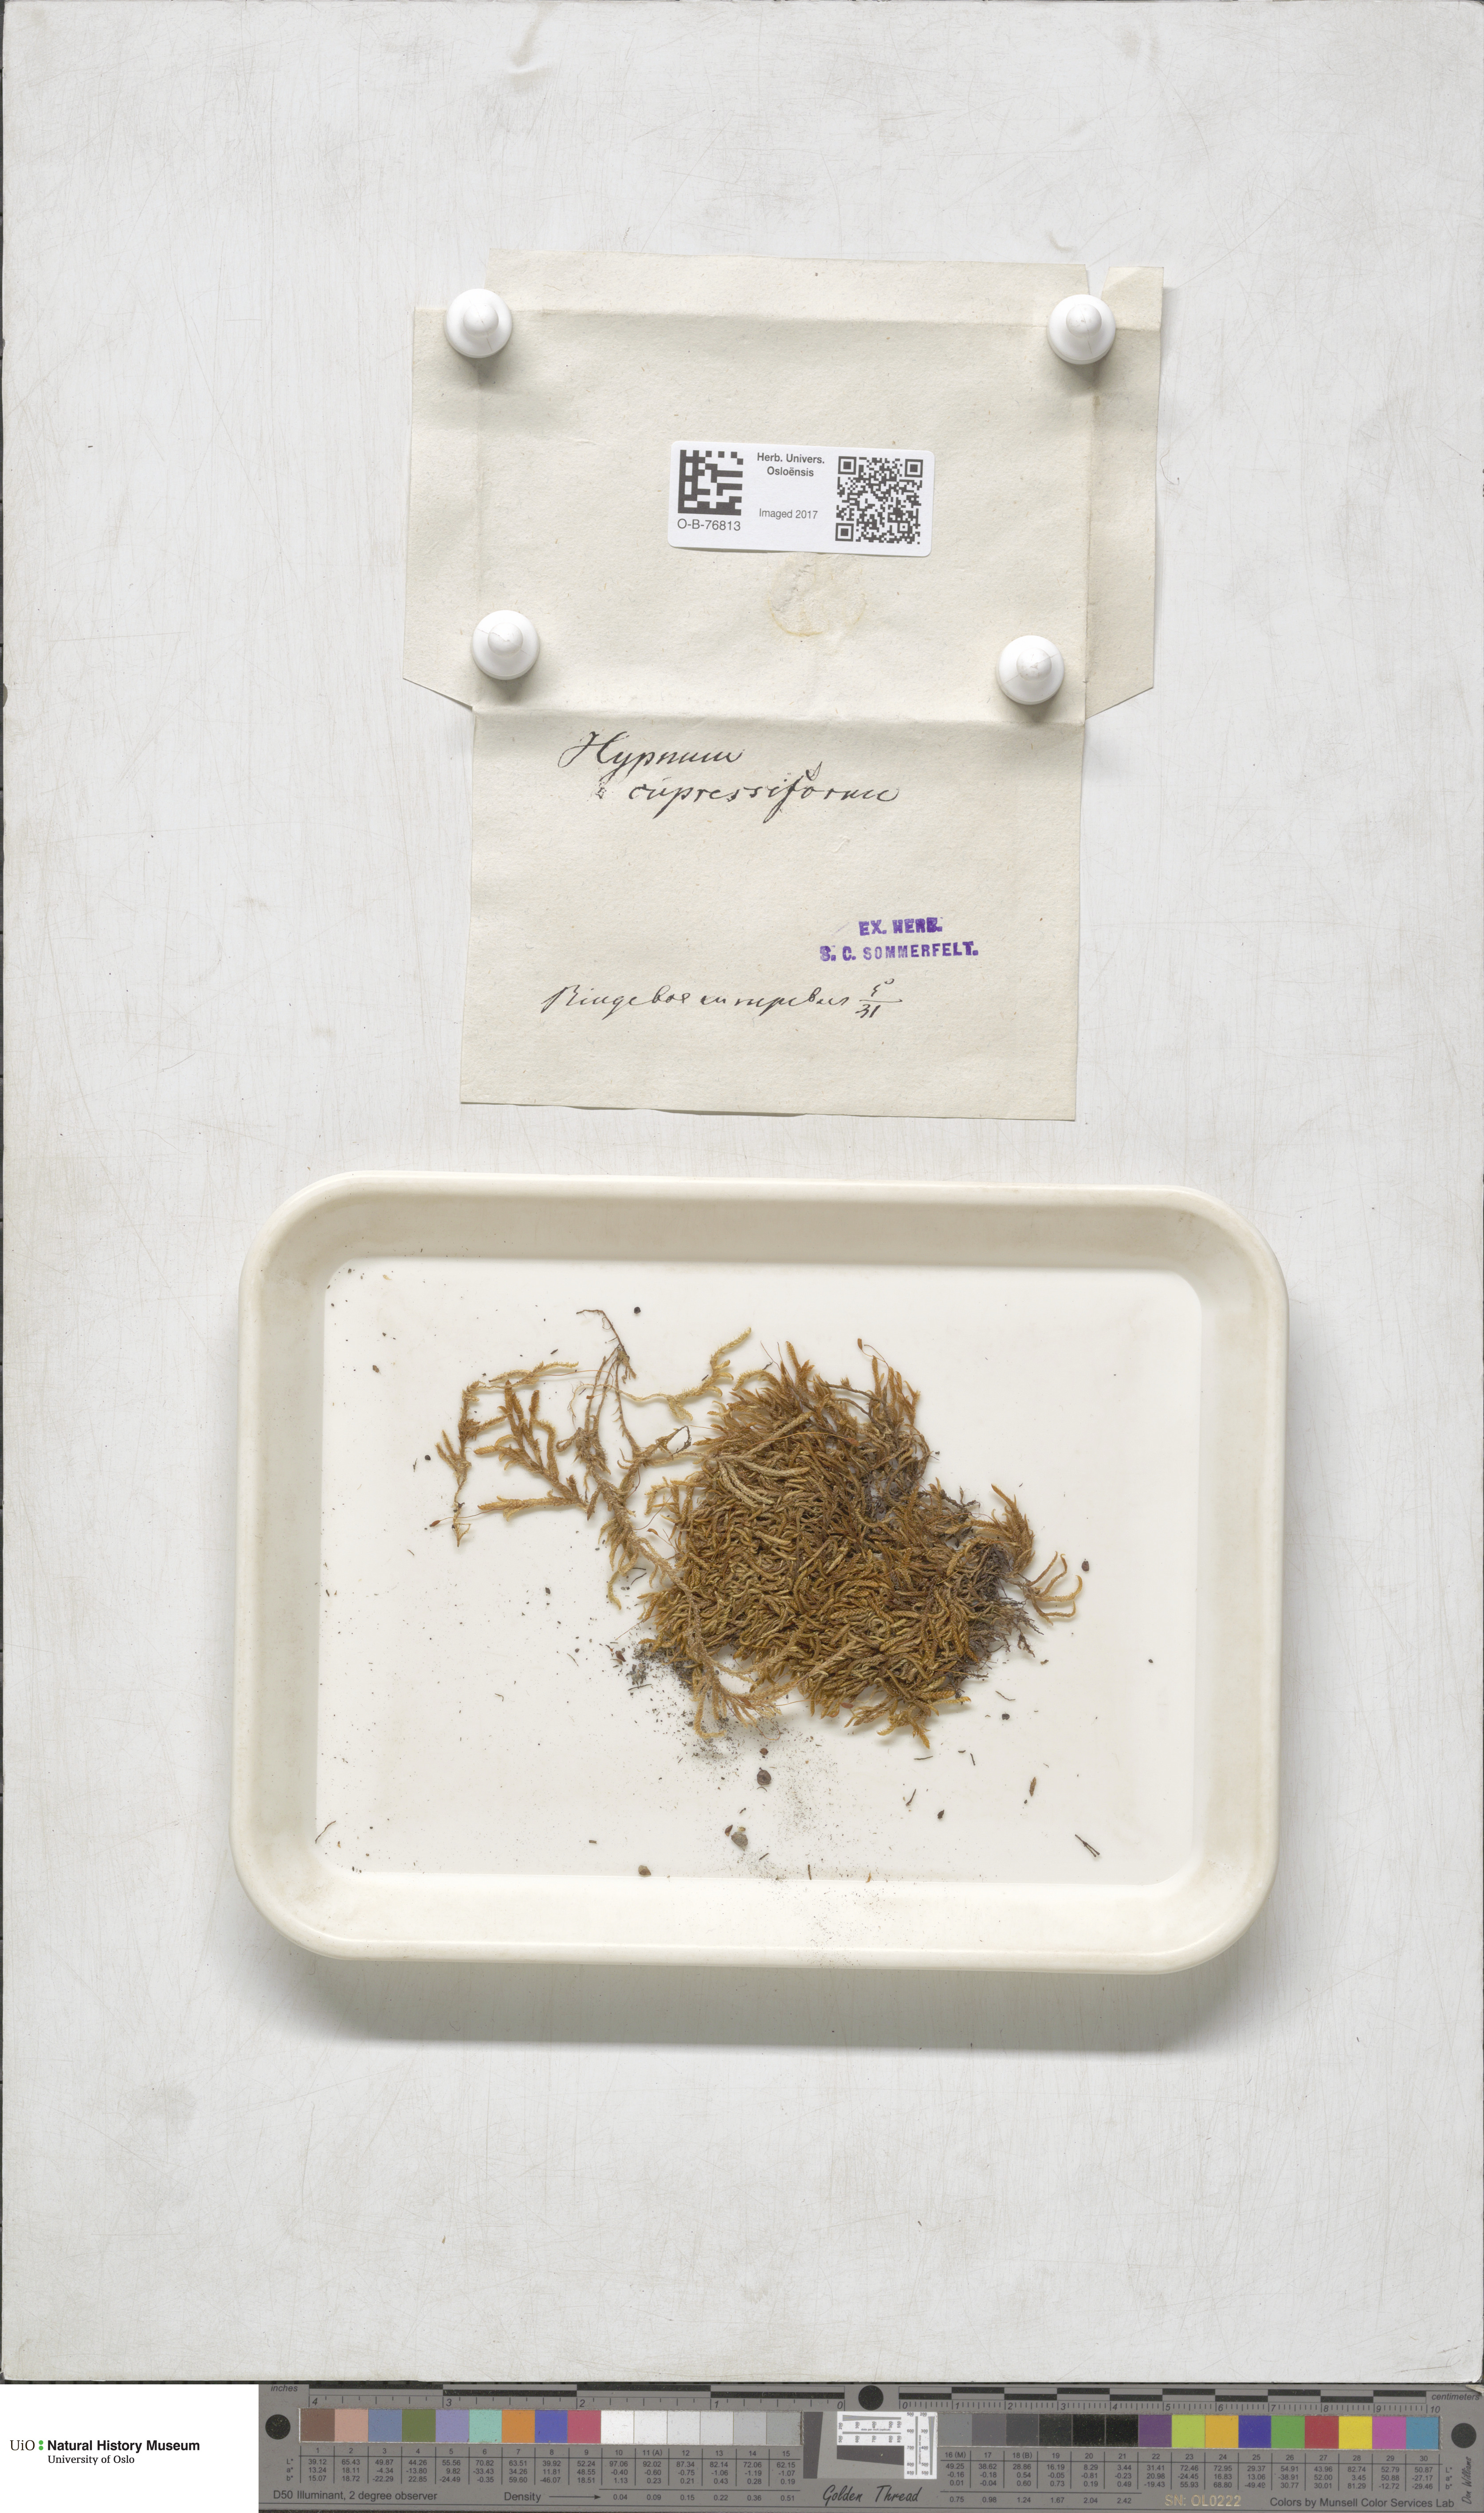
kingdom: Plantae
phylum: Bryophyta
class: Bryopsida
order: Hypnales
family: Hypnaceae
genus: Hypnum
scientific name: Hypnum cupressiforme
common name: Cypress-leaved plait-moss
